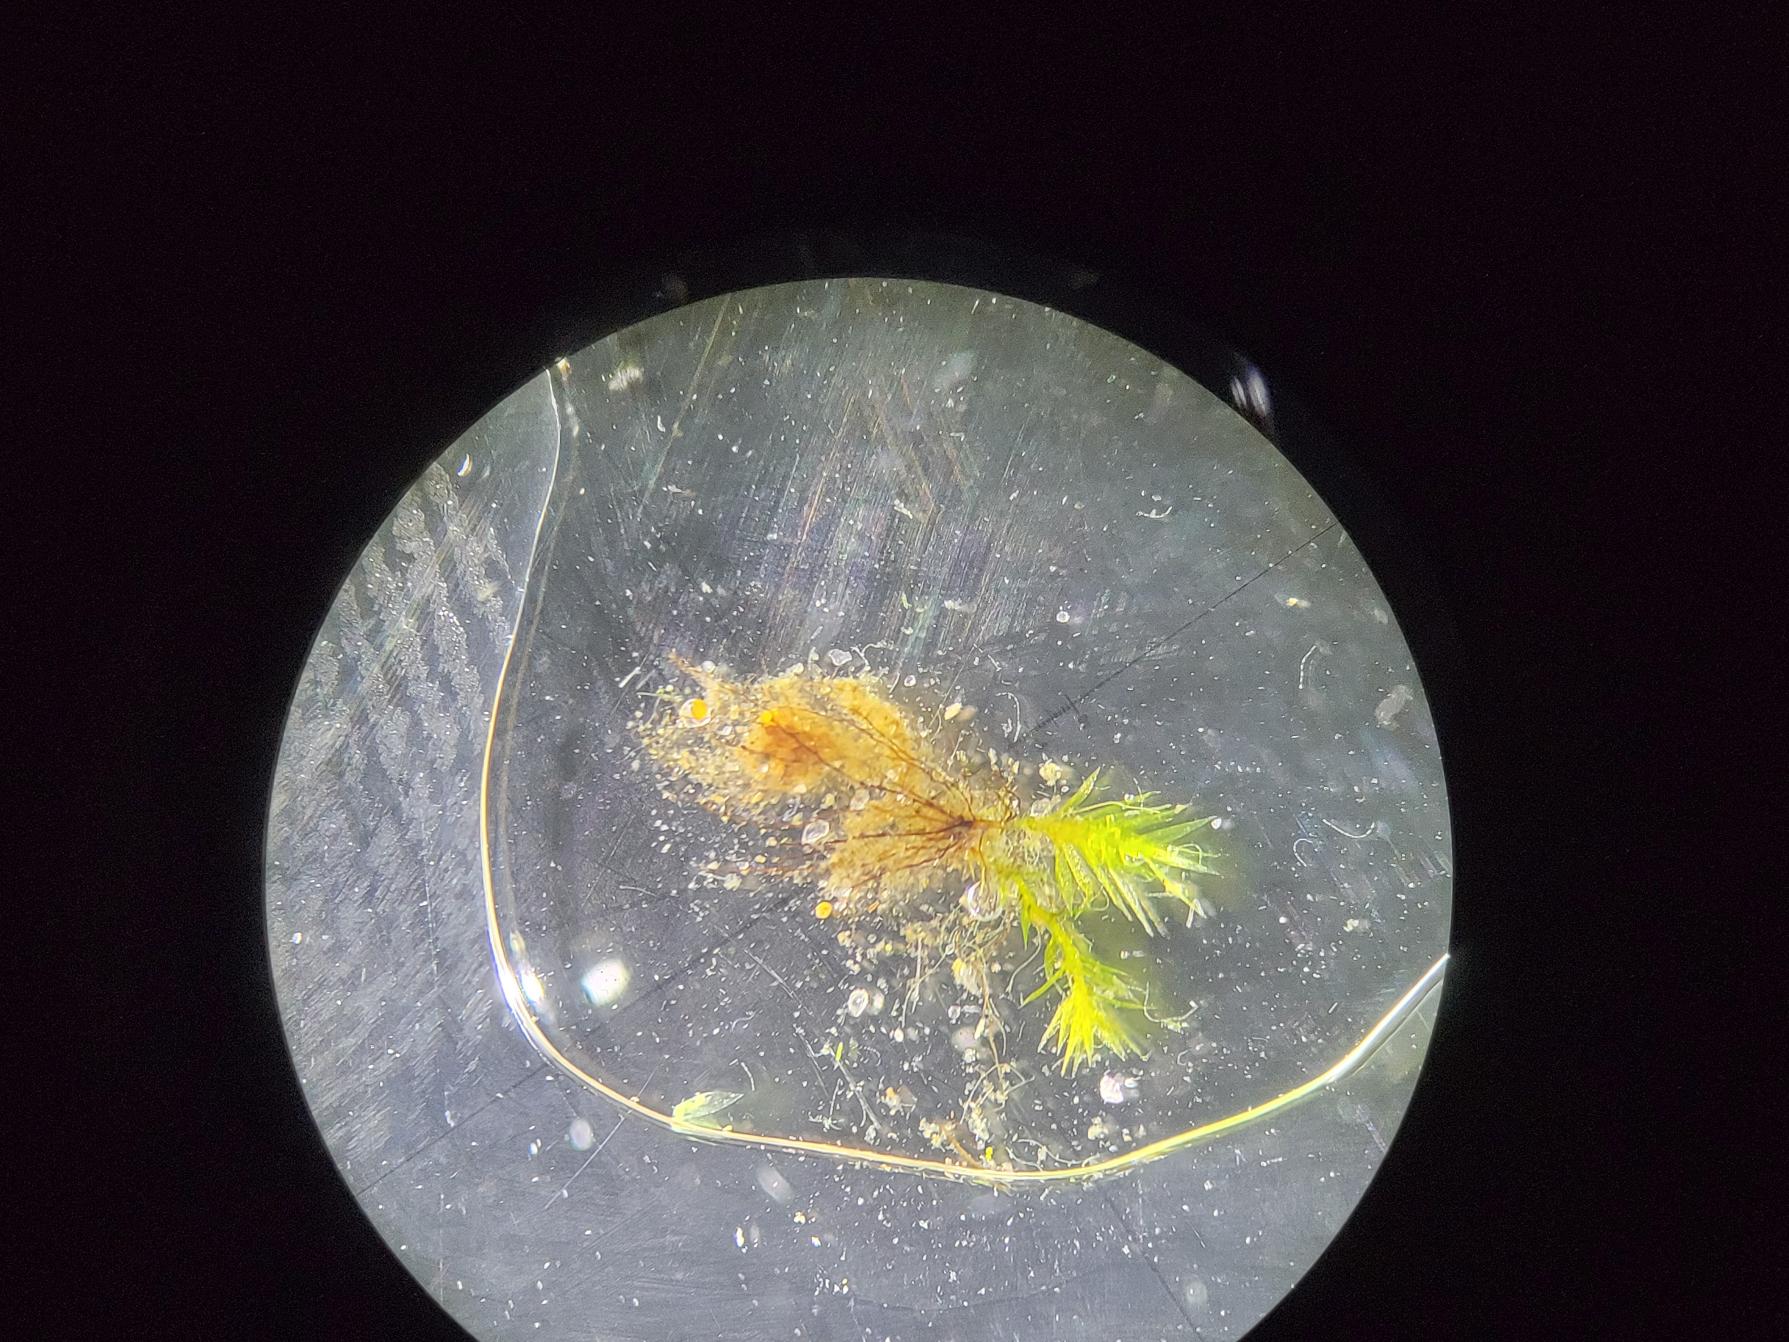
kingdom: Plantae
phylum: Bryophyta
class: Bryopsida
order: Bryales
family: Bryaceae
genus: Gemmabryum
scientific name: Gemmabryum tenuisetum
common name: Gulknoldet bryum
